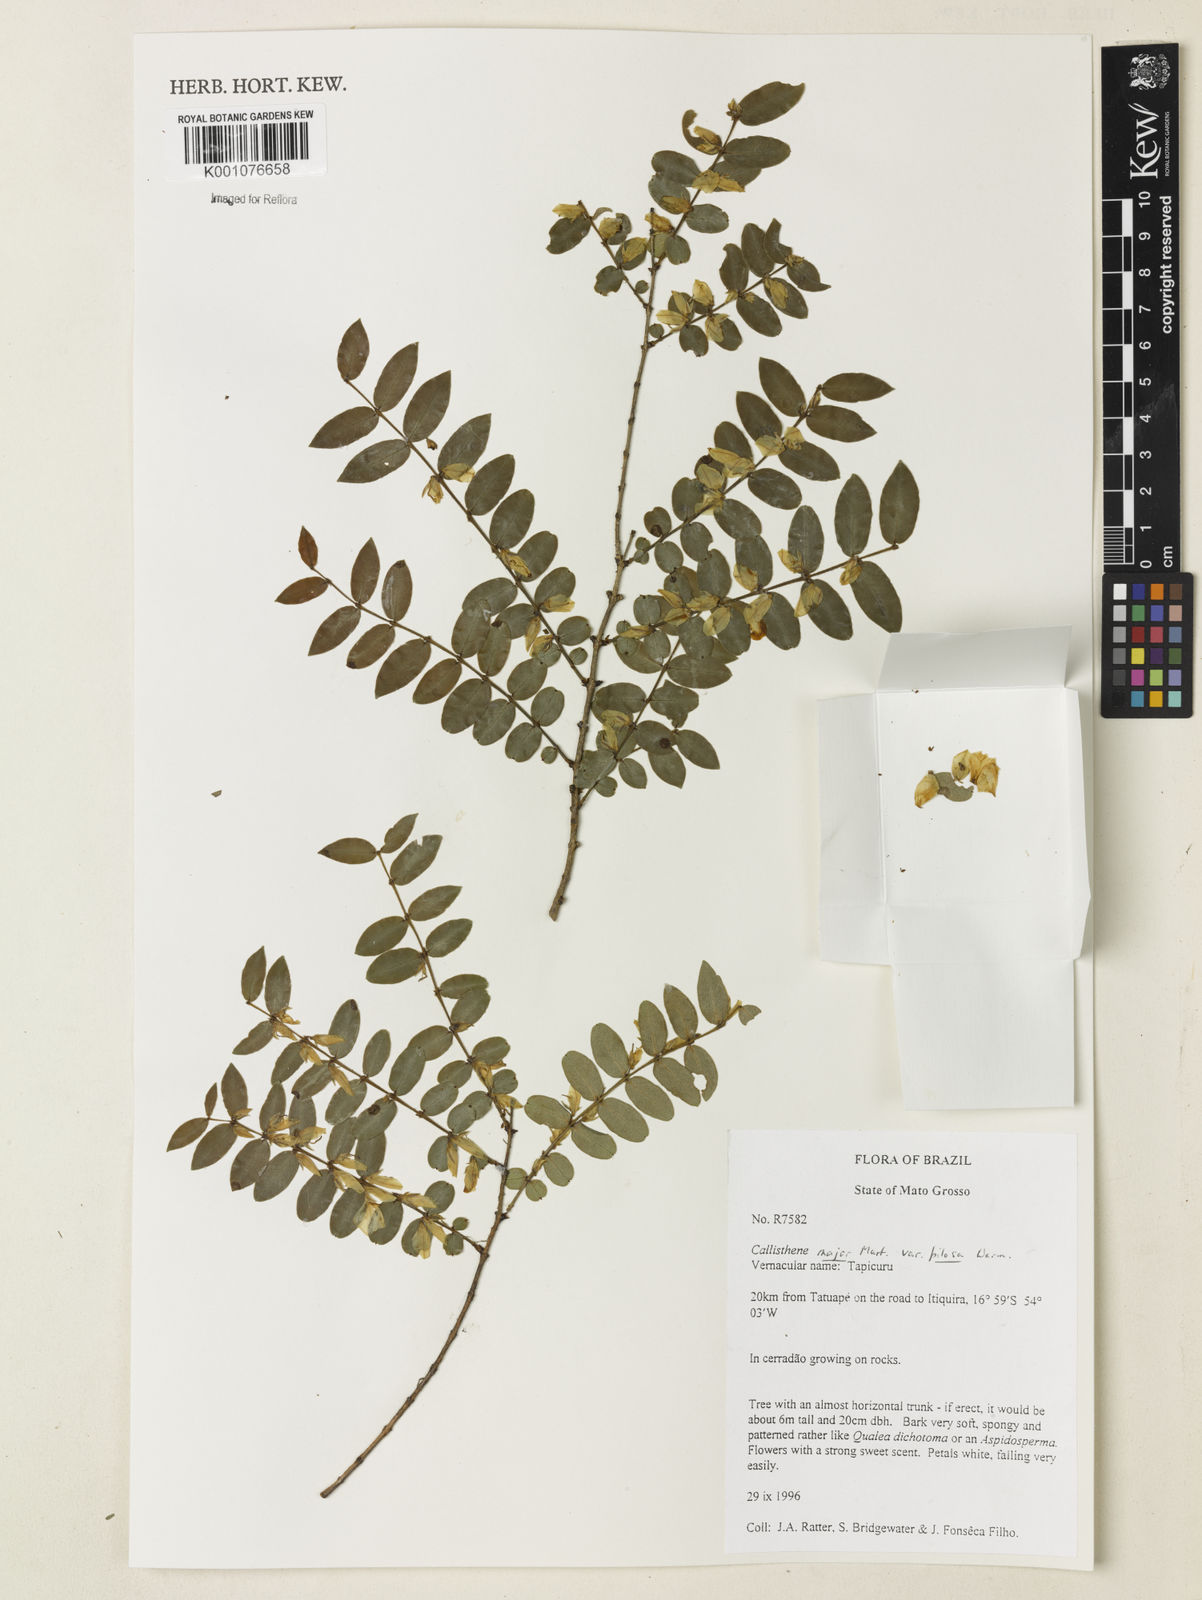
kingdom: Plantae
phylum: Tracheophyta
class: Magnoliopsida
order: Myrtales
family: Vochysiaceae
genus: Callisthene
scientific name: Callisthene major
